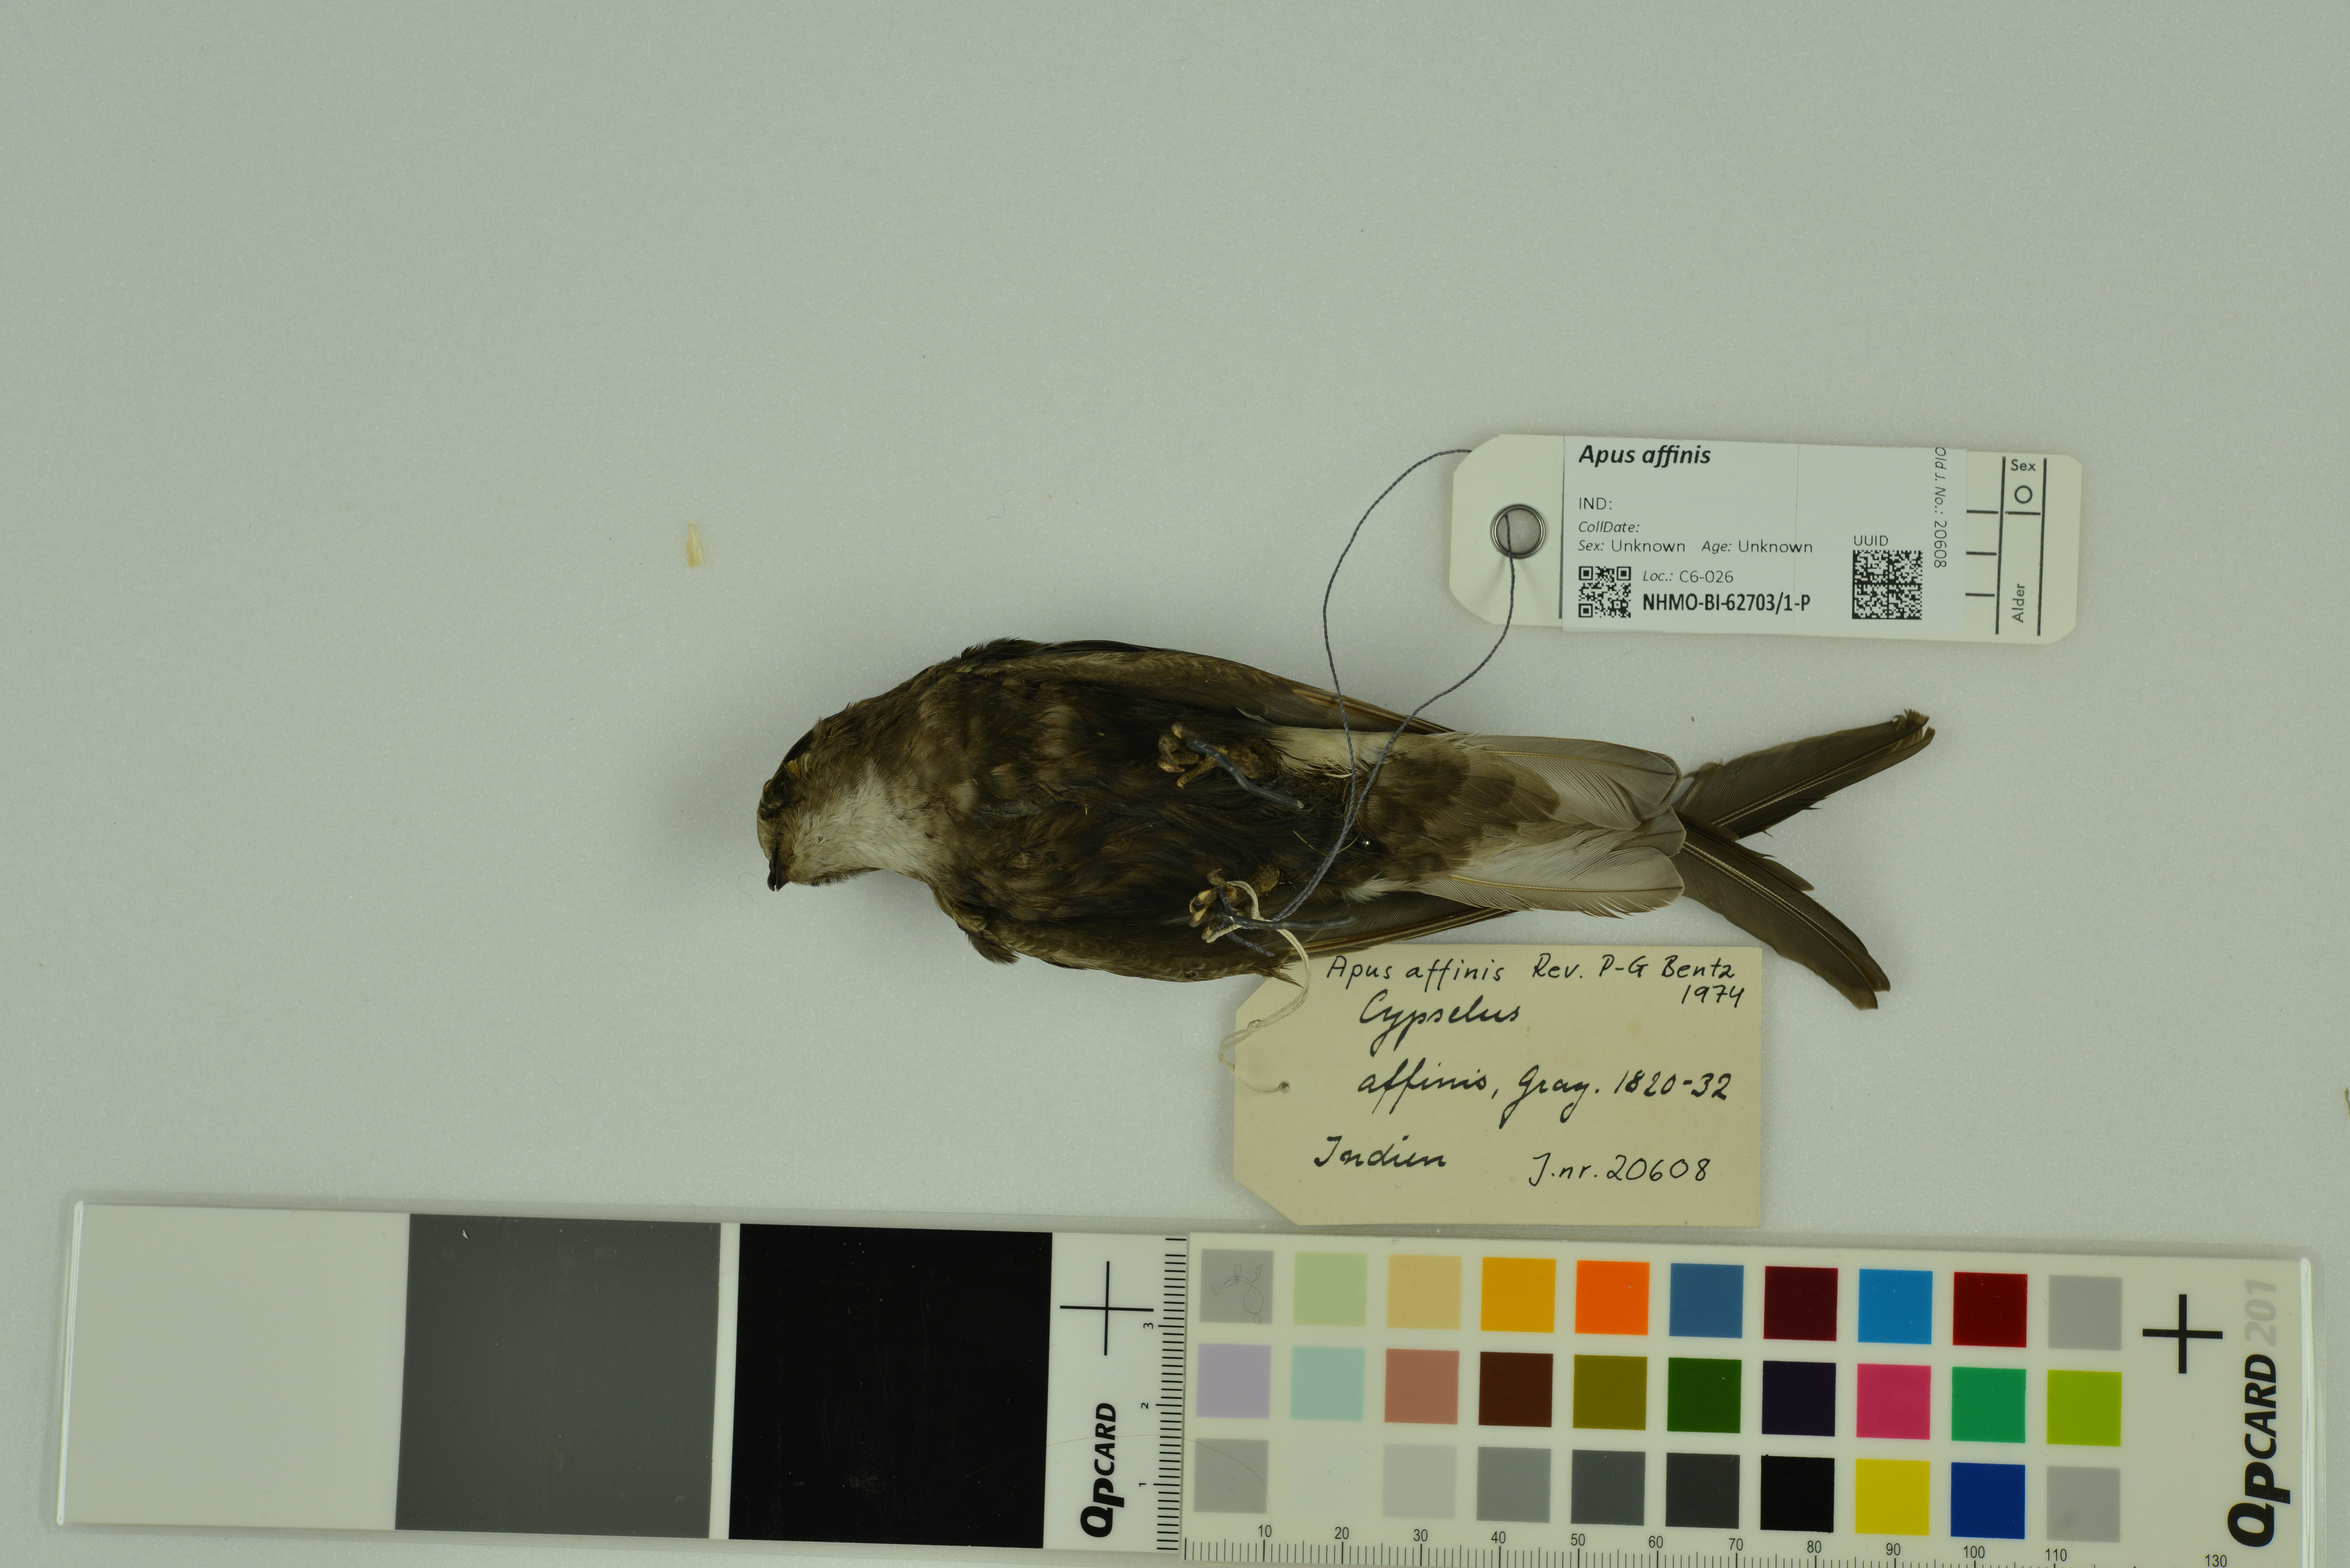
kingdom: Animalia
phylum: Chordata
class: Aves
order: Apodiformes
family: Apodidae
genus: Apus
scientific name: Apus affinis
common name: Little swift
